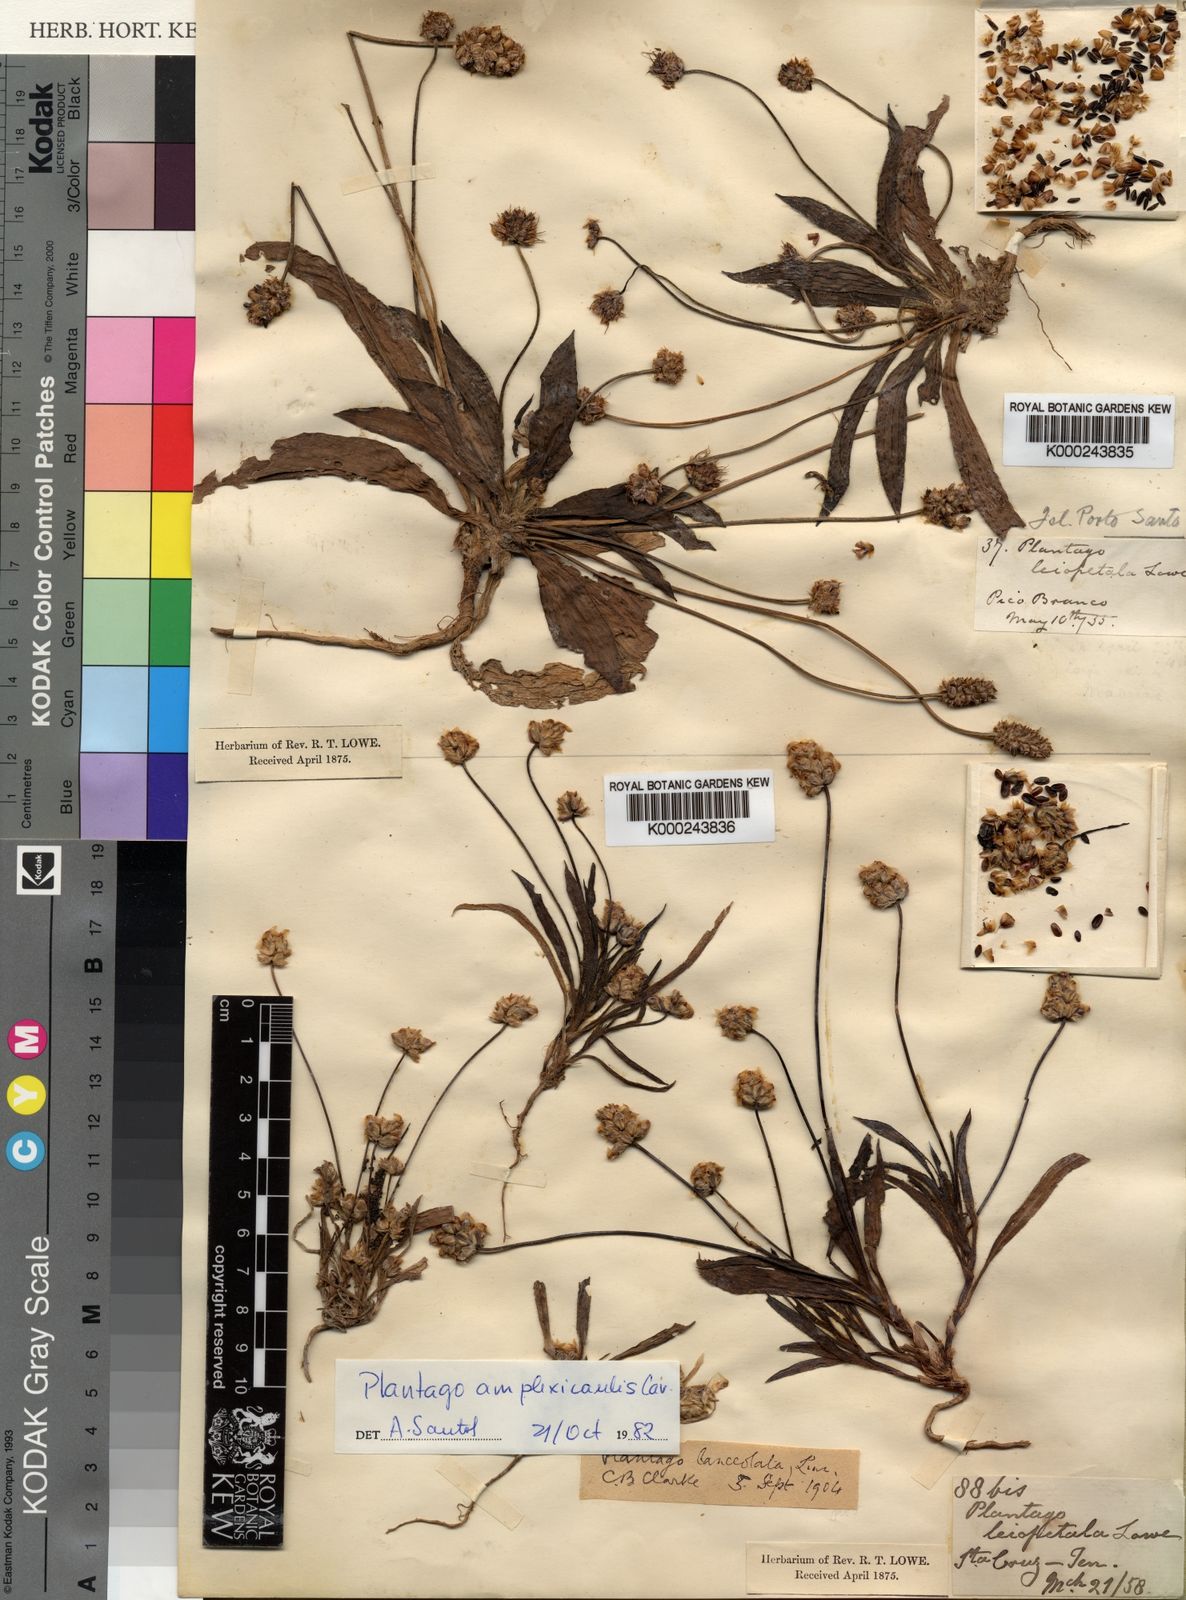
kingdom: Plantae
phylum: Tracheophyta
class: Magnoliopsida
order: Lamiales
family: Plantaginaceae
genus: Plantago
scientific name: Plantago lanceolata
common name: Ribwort plantain
